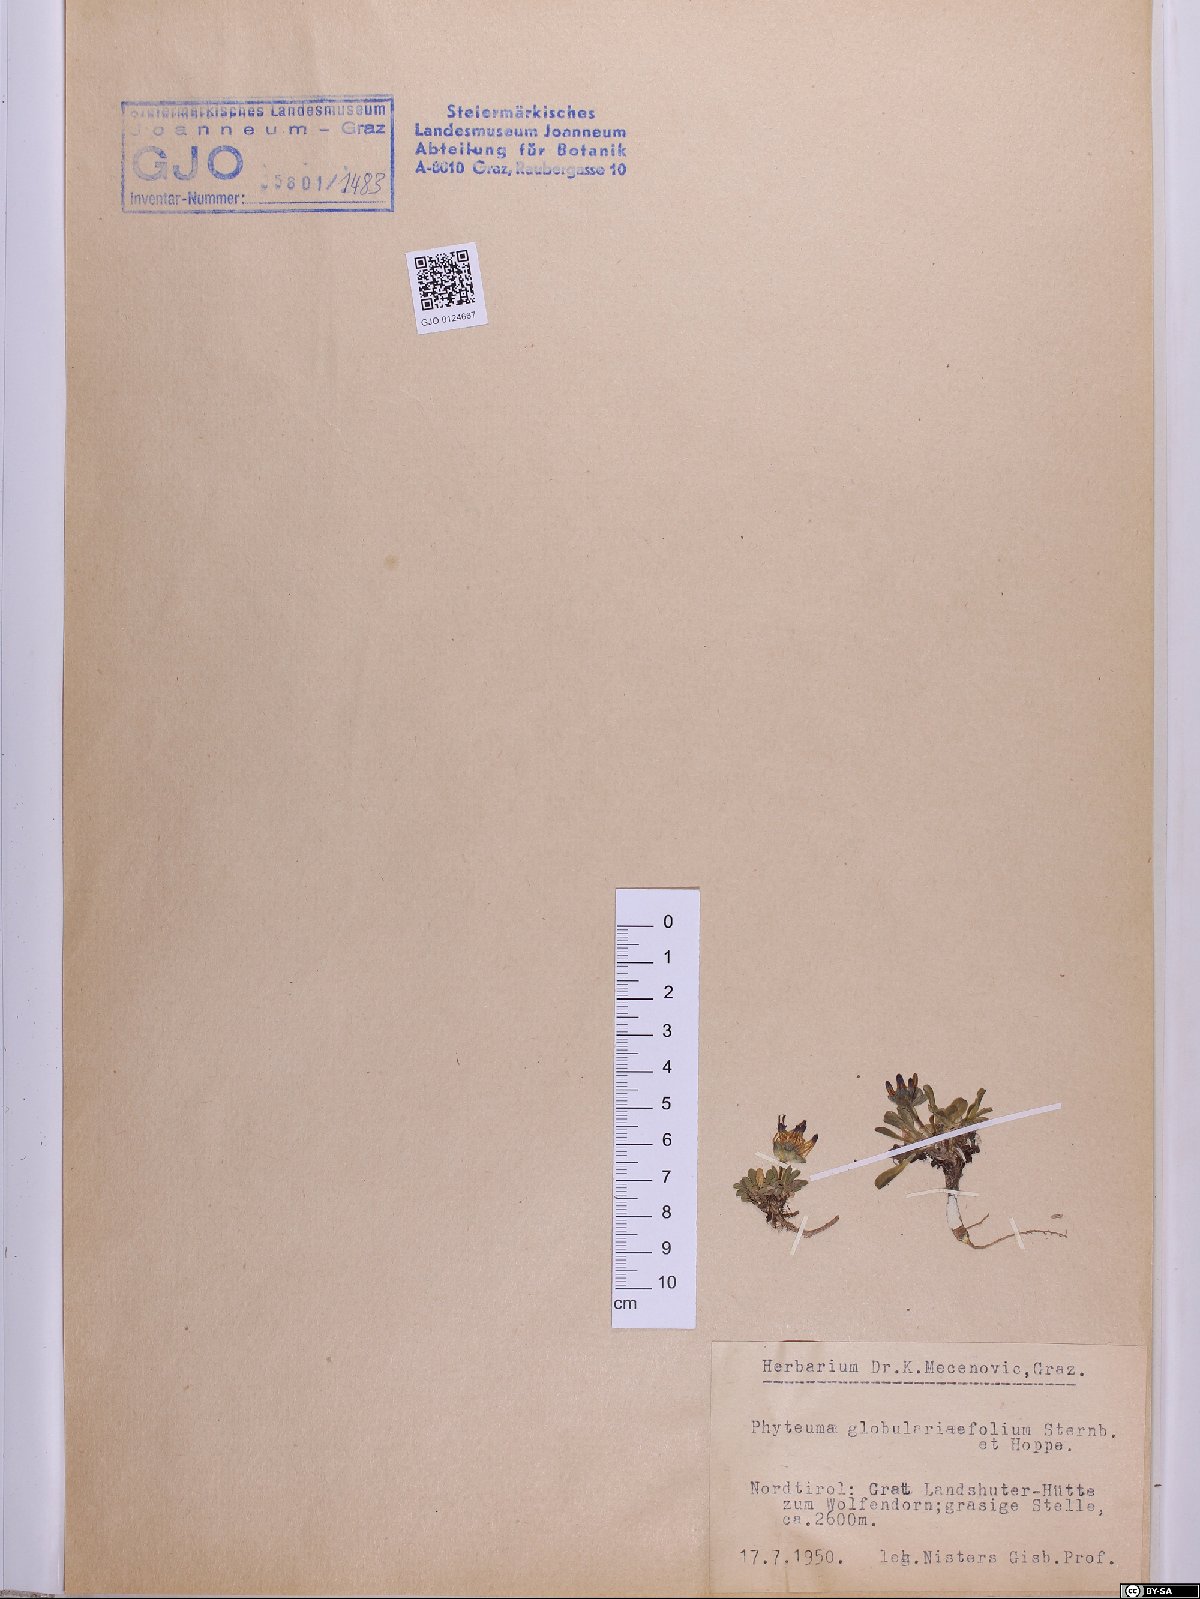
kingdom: Plantae
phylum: Tracheophyta
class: Magnoliopsida
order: Asterales
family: Campanulaceae
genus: Phyteuma
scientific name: Phyteuma globulariifolium
